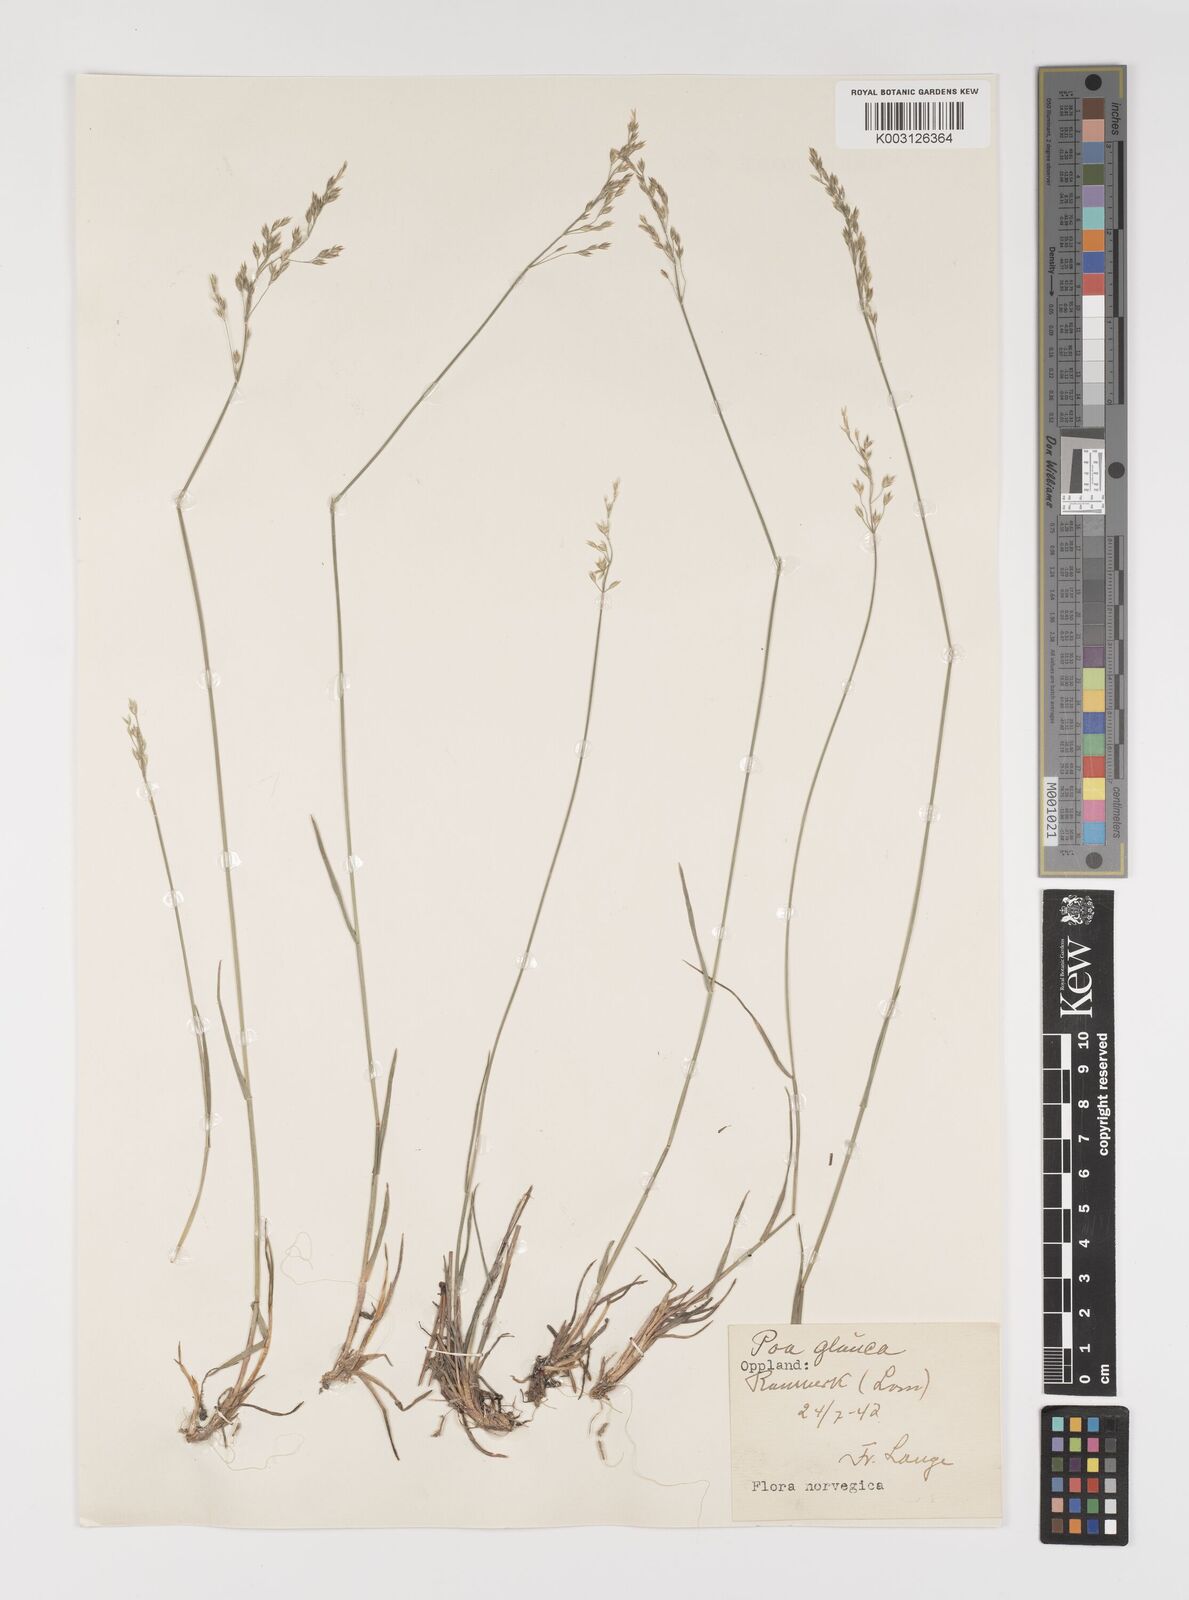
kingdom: Plantae
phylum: Tracheophyta
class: Liliopsida
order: Poales
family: Poaceae
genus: Poa
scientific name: Poa glauca
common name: Glaucous bluegrass
